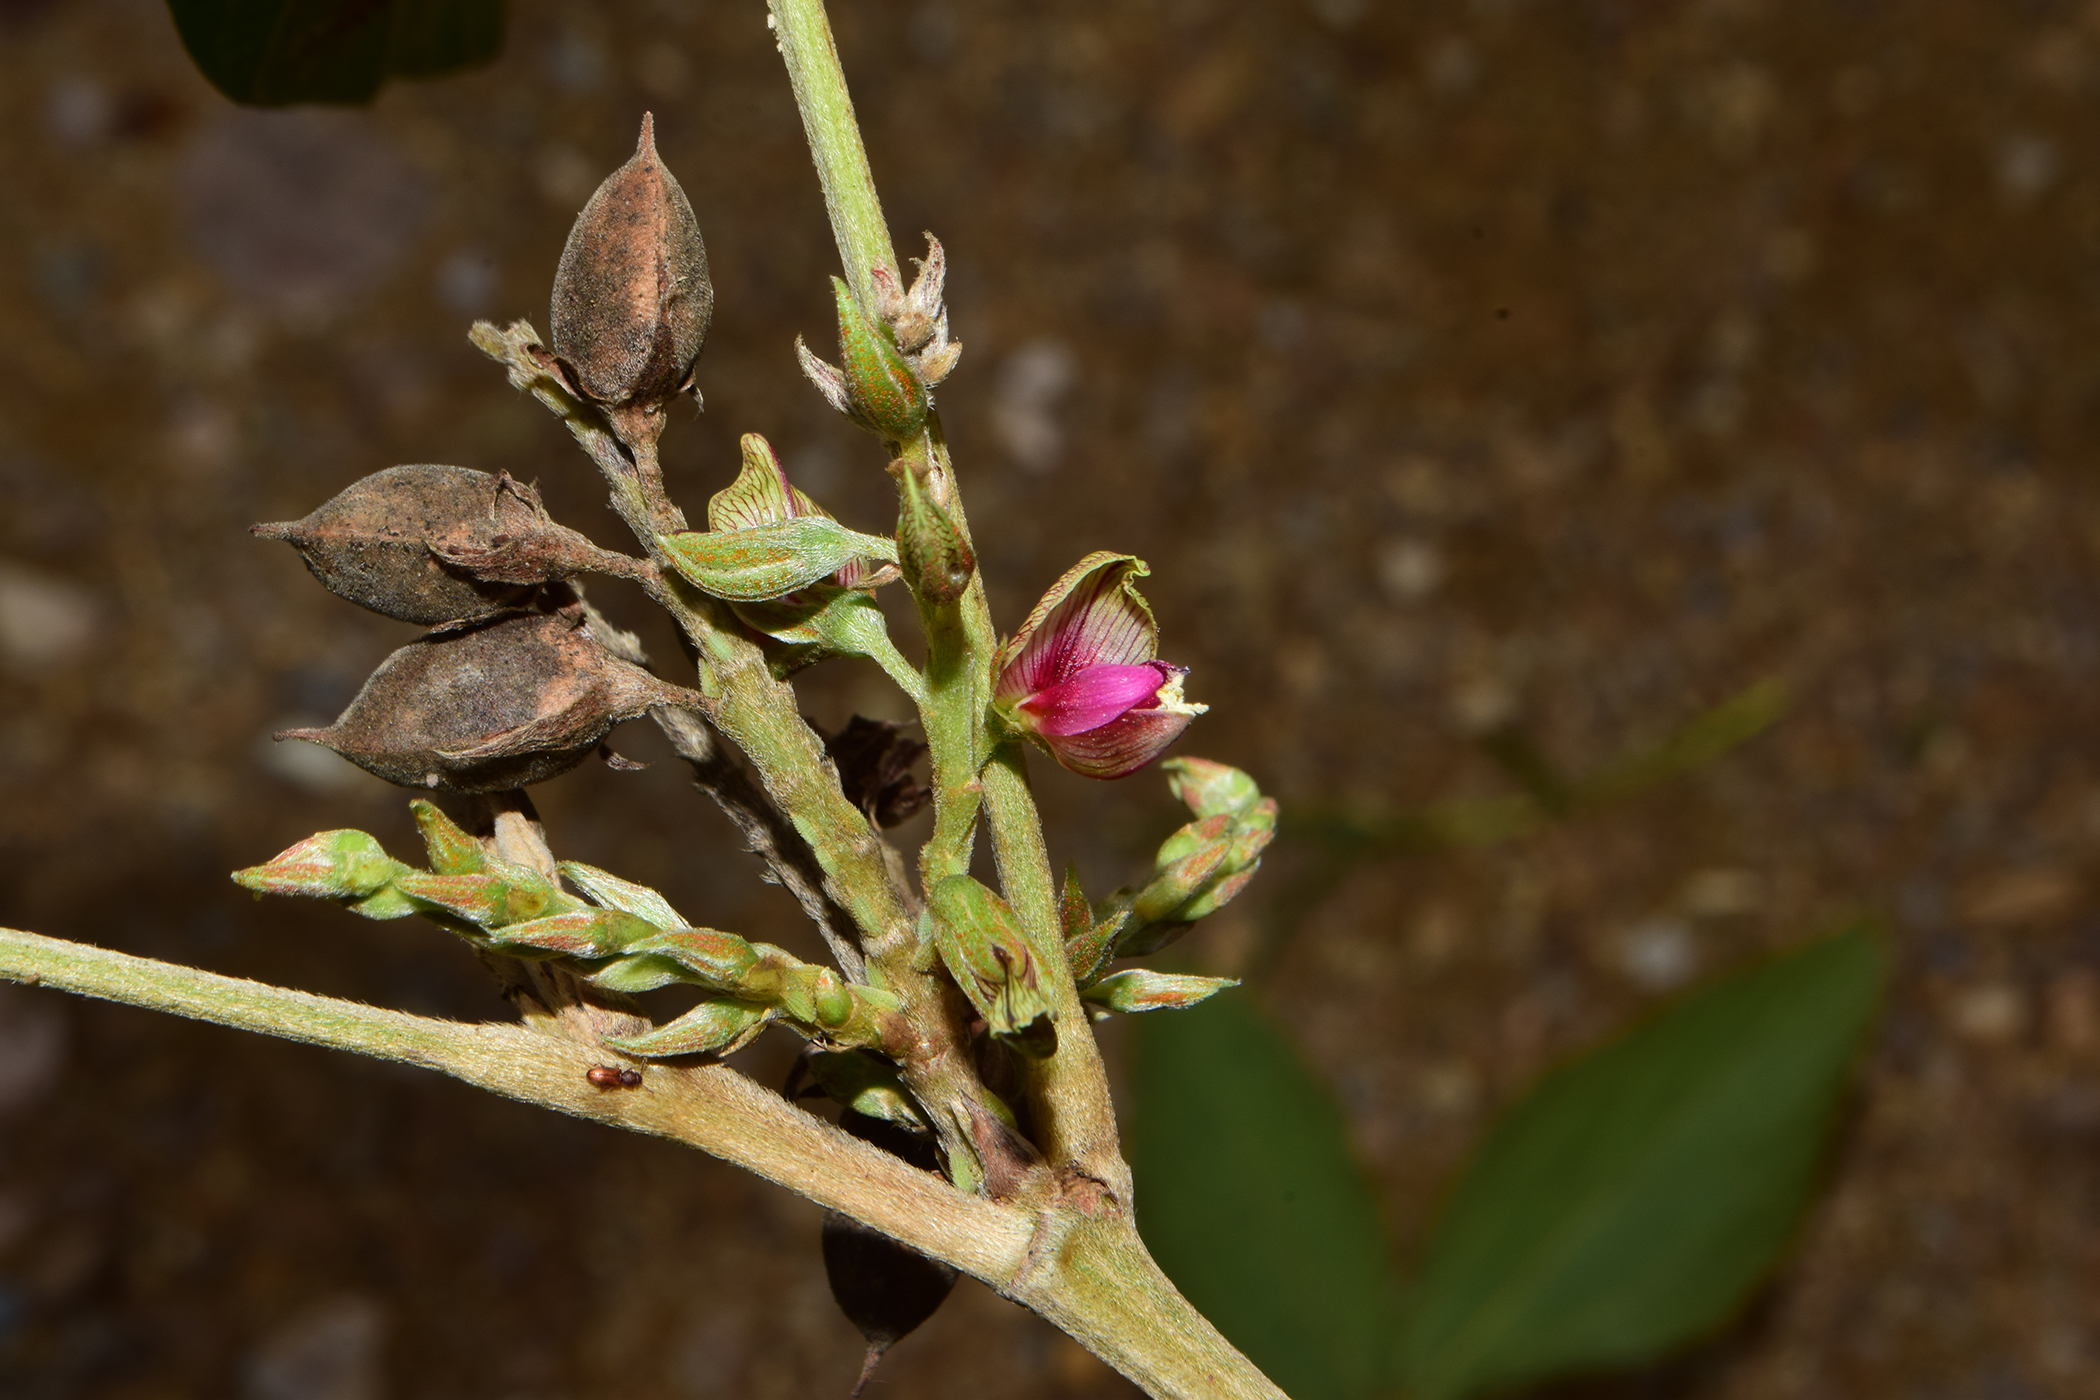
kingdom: Plantae
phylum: Tracheophyta
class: Magnoliopsida
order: Fabales
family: Fabaceae
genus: Flemingia
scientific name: Flemingia macrophylla
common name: Flemingia
